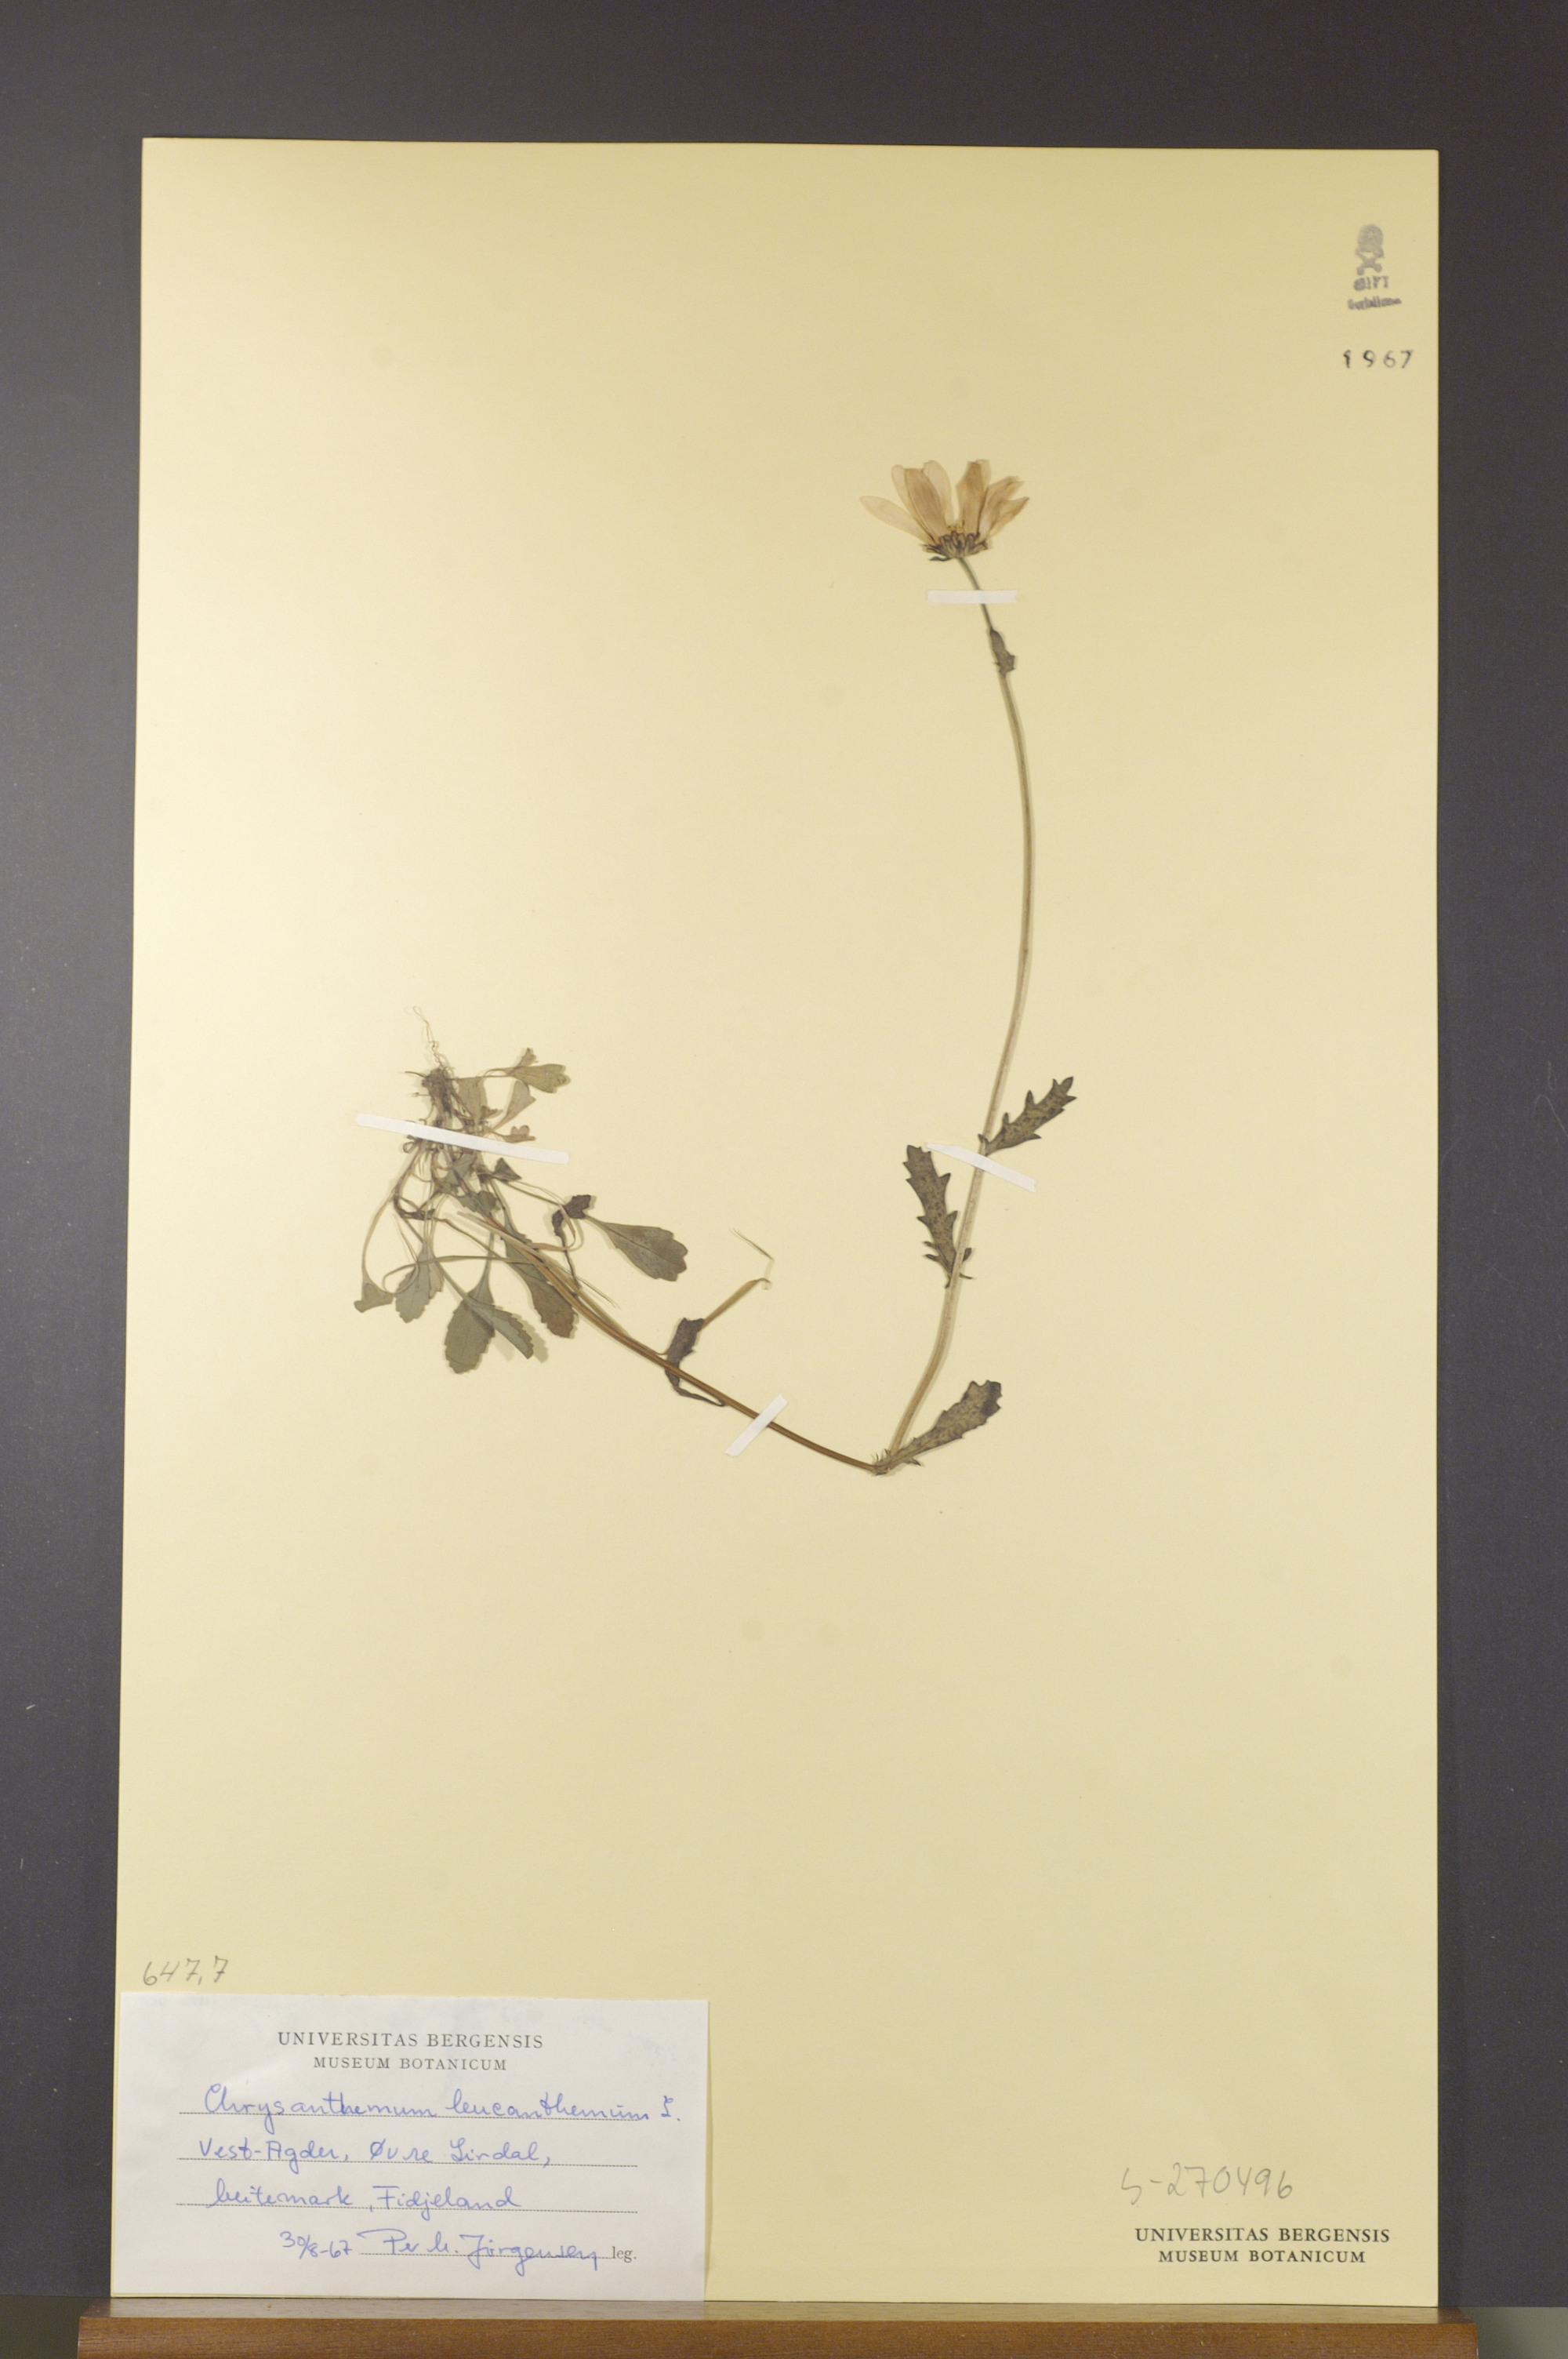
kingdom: Plantae
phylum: Tracheophyta
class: Magnoliopsida
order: Asterales
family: Asteraceae
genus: Leucanthemum
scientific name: Leucanthemum vulgare
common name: Oxeye daisy
